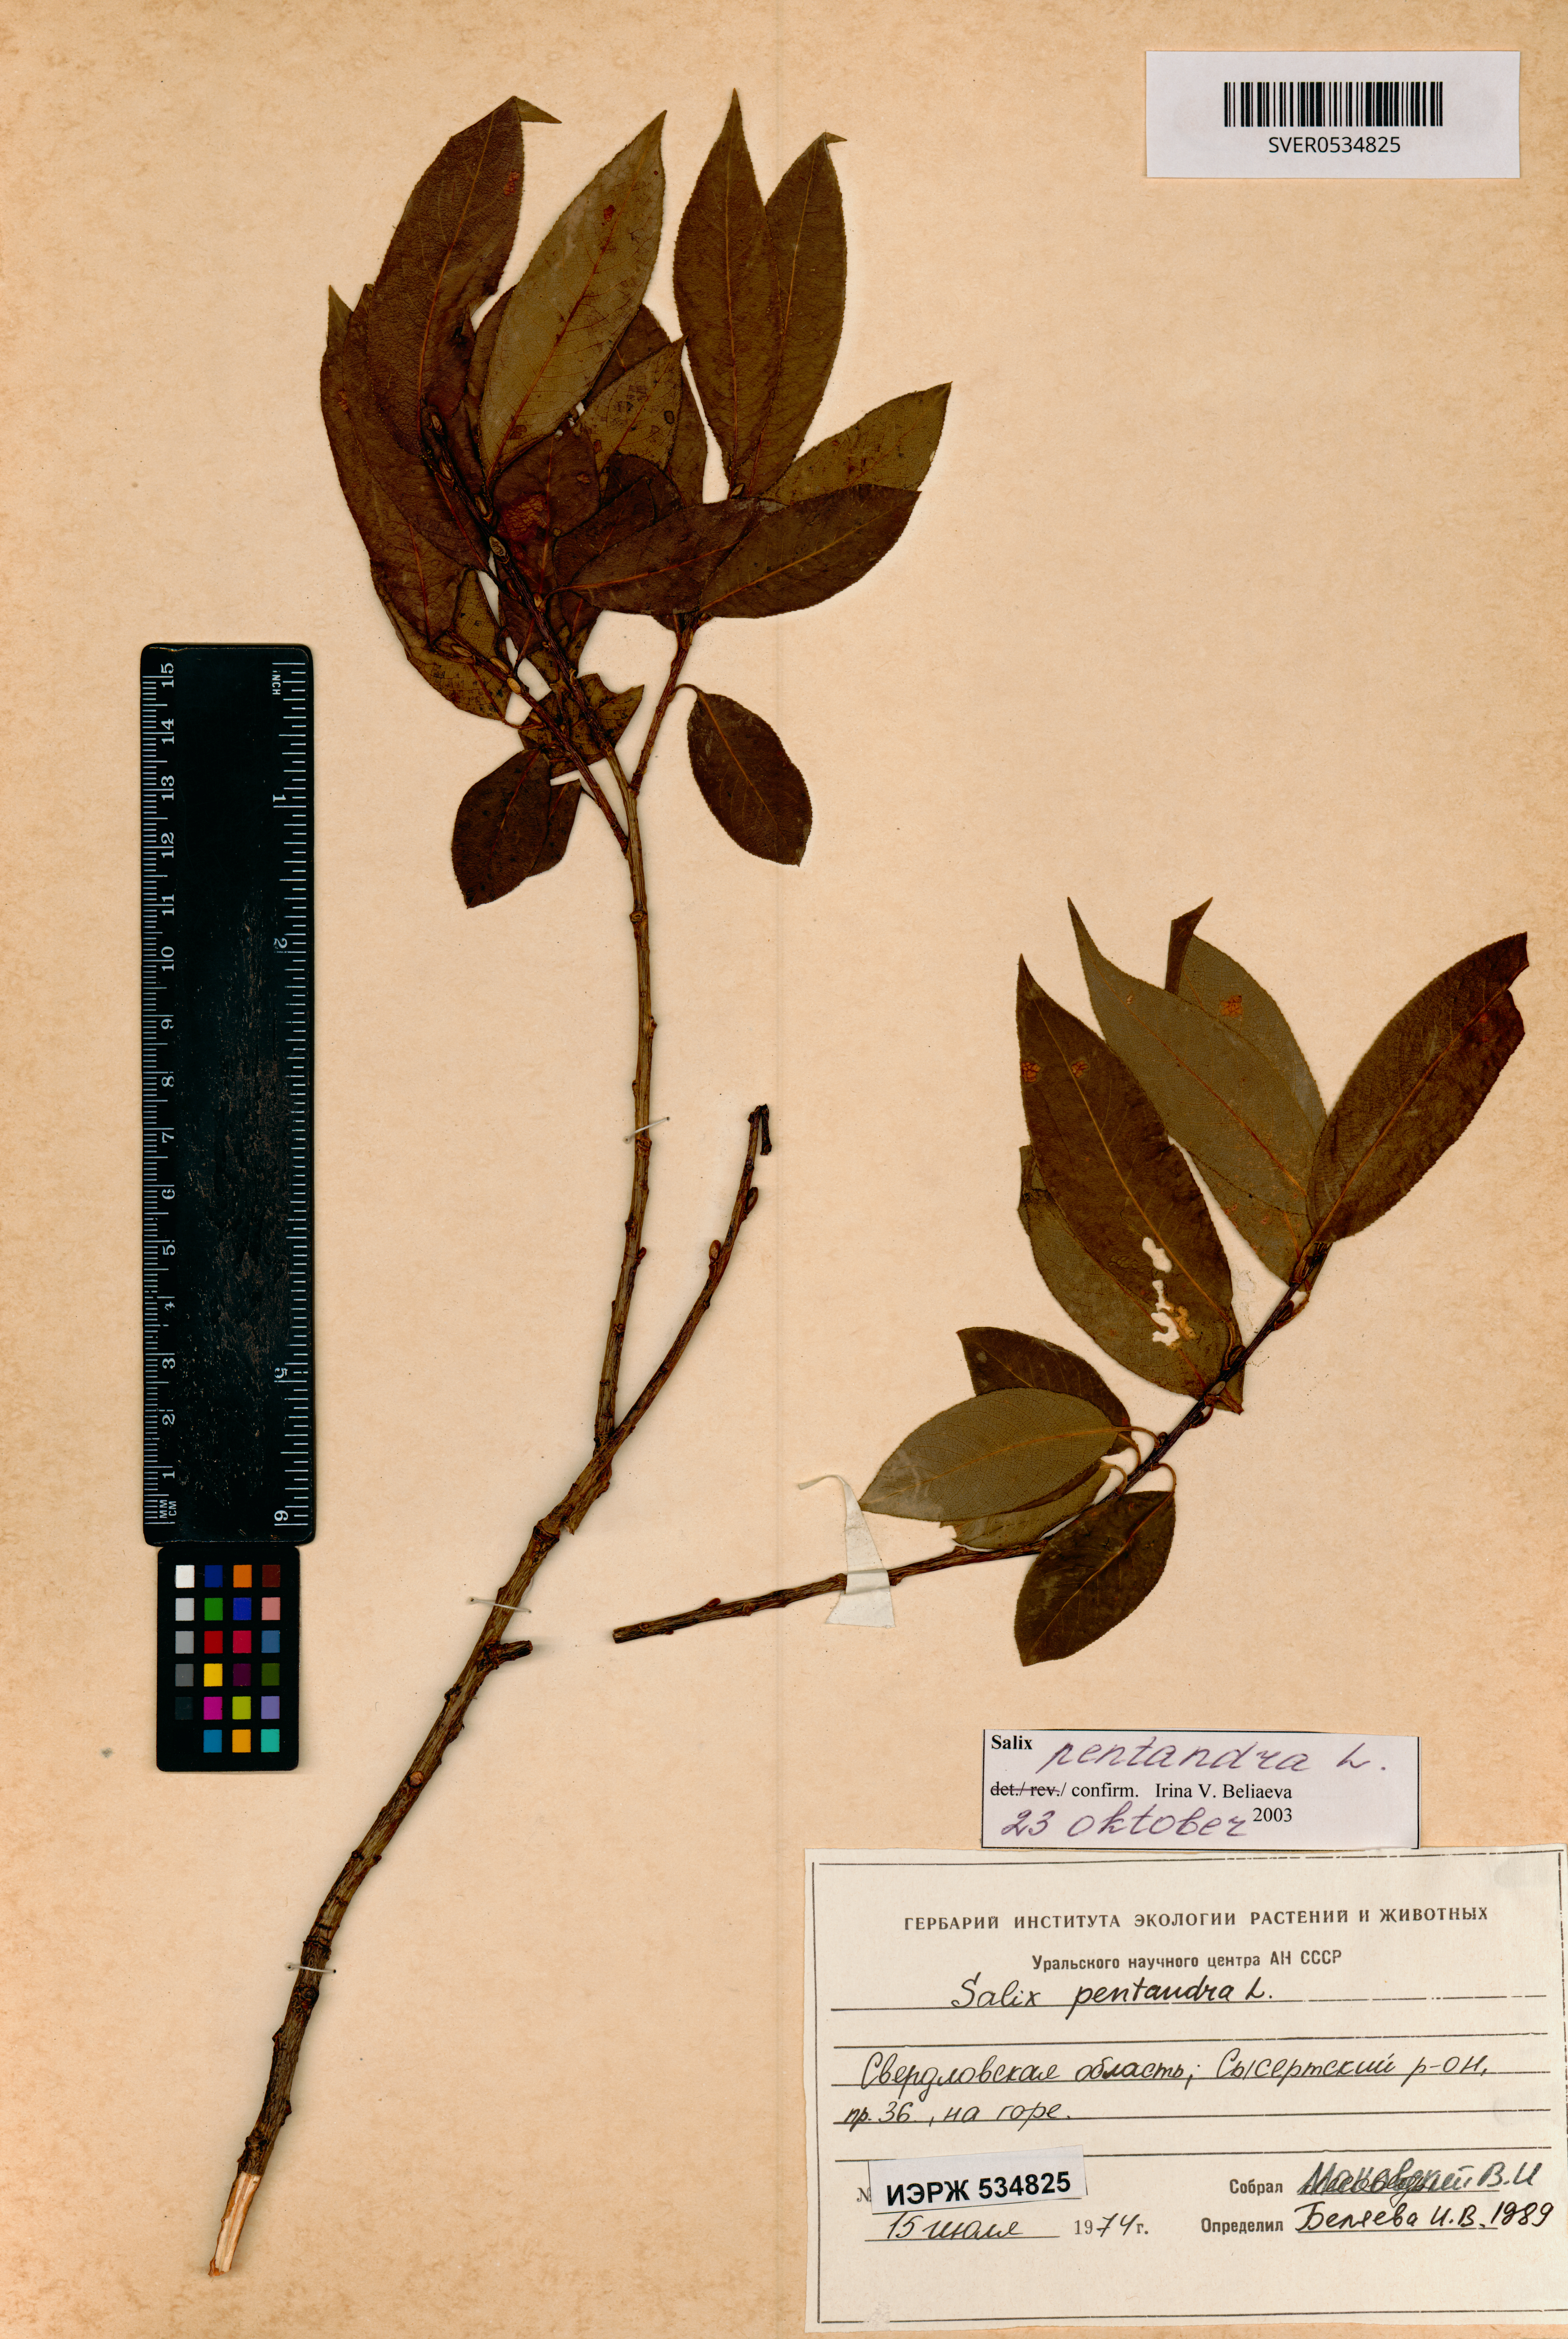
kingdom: Plantae
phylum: Tracheophyta
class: Magnoliopsida
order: Malpighiales
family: Salicaceae
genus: Salix
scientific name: Salix pentandra
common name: Bay willow
